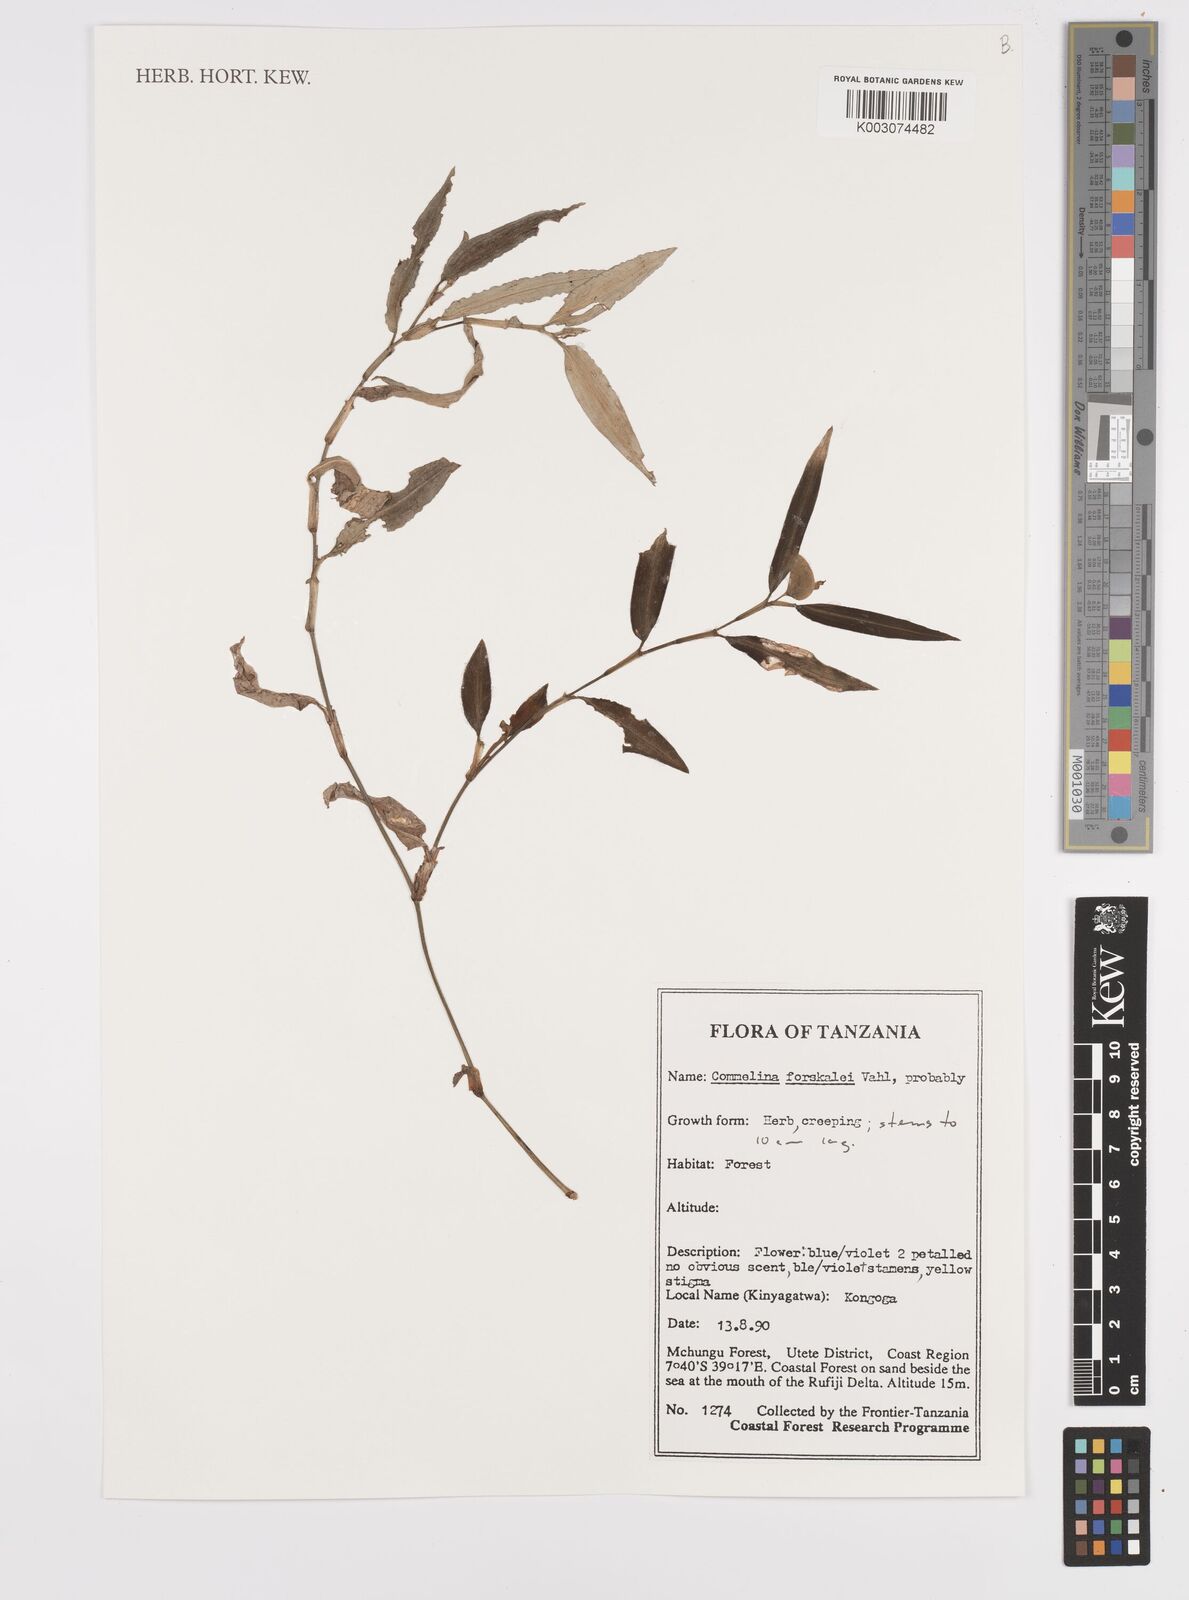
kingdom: Plantae
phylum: Tracheophyta
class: Liliopsida
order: Commelinales
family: Commelinaceae
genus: Commelina
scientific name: Commelina
